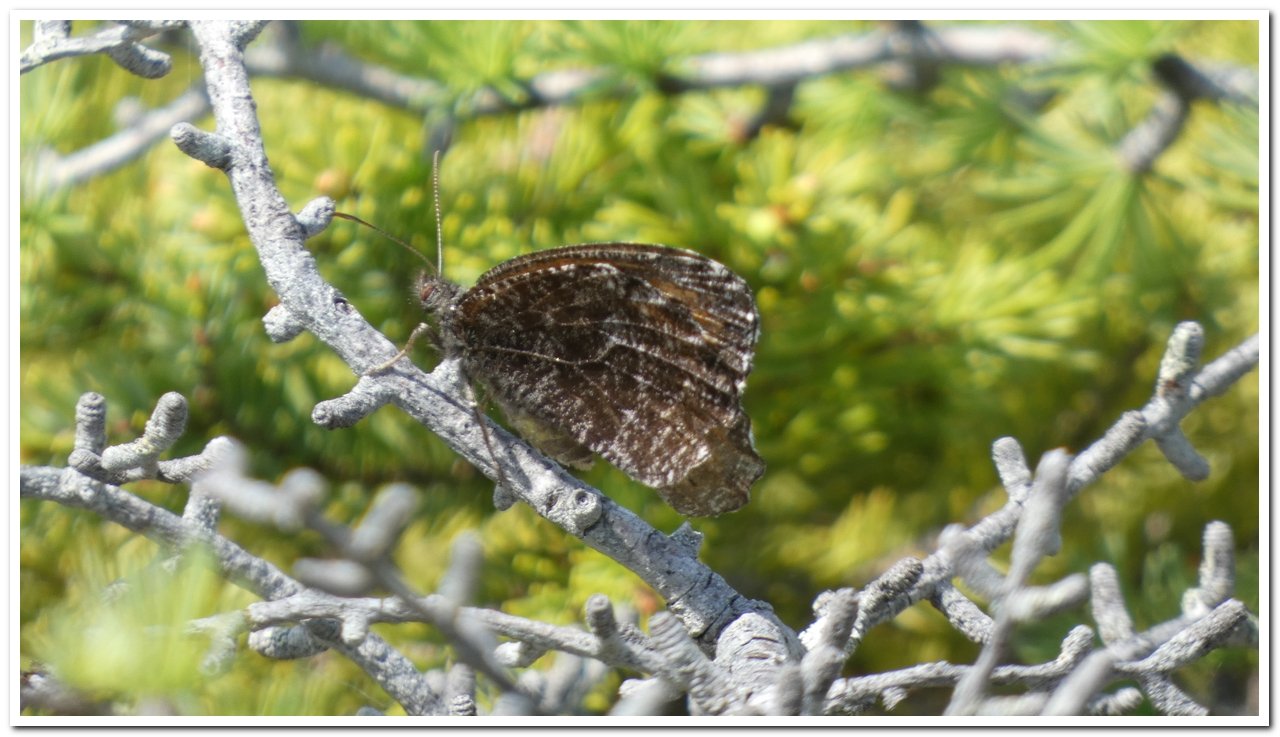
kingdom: Animalia
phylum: Arthropoda
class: Insecta
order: Lepidoptera
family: Nymphalidae
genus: Oeneis
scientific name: Oeneis jutta
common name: Jutta Arctic
